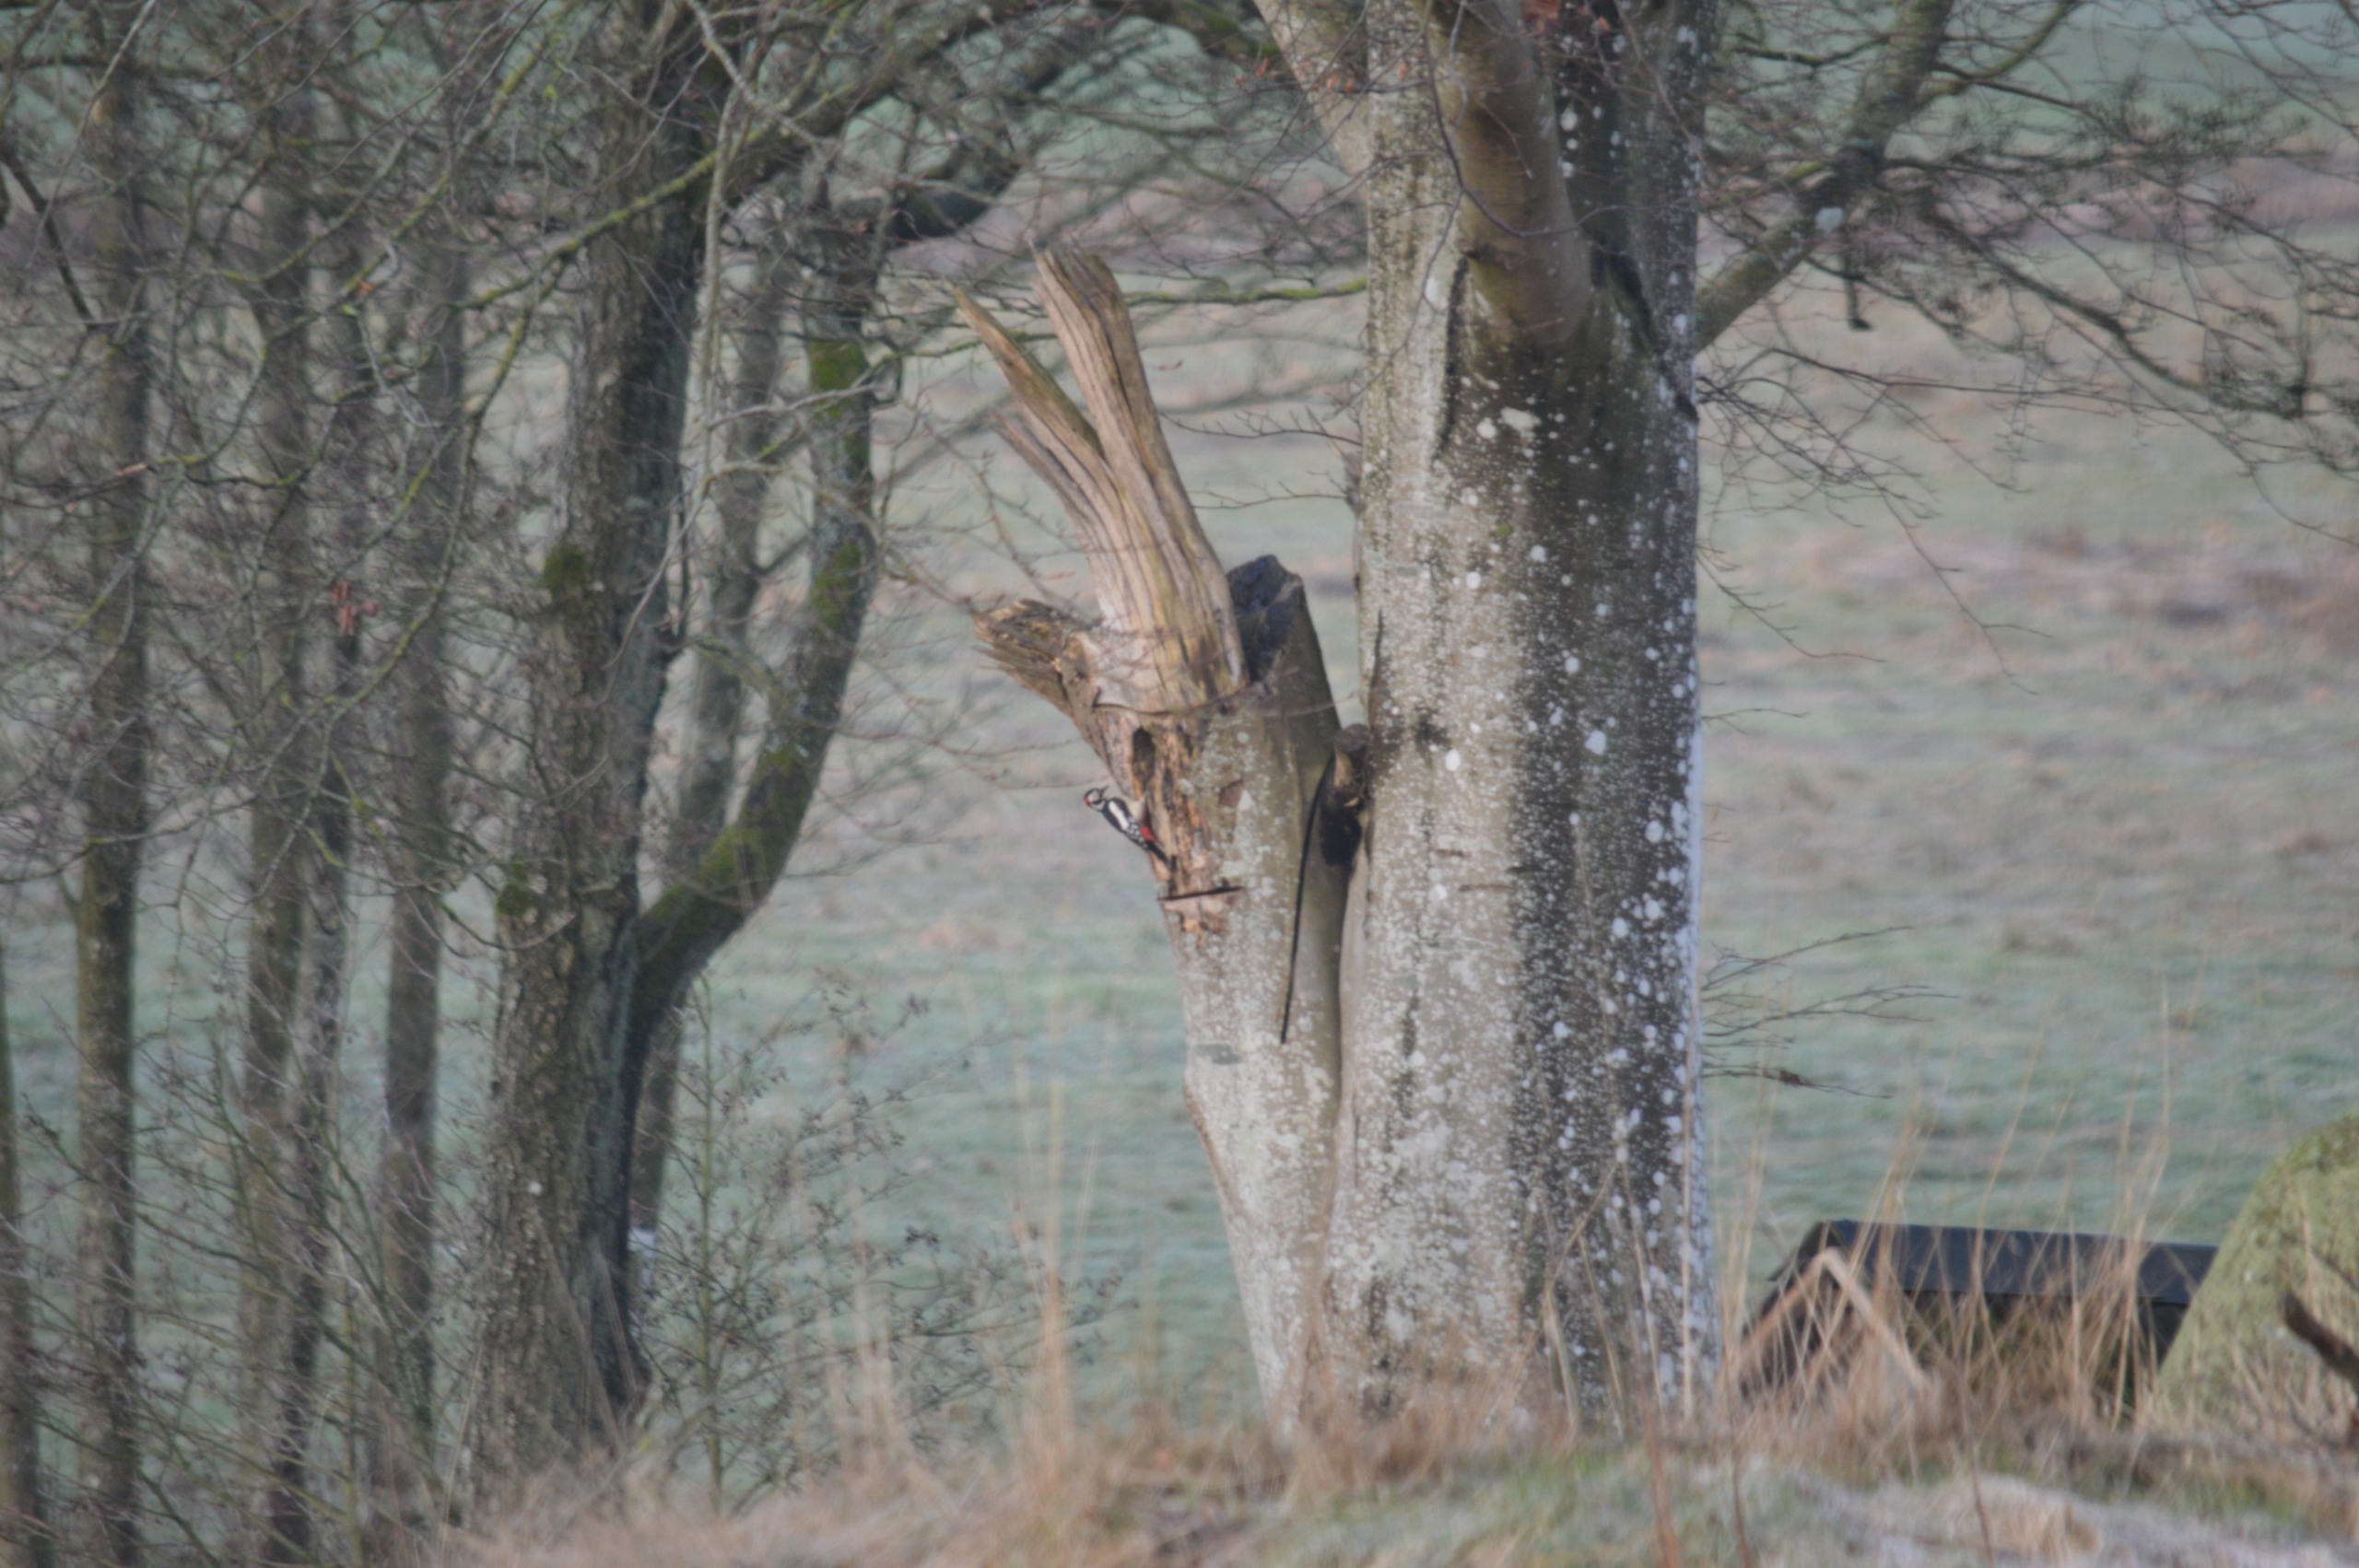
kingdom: Animalia
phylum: Chordata
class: Aves
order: Piciformes
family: Picidae
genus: Dendrocopos
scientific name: Dendrocopos major
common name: Stor flagspætte
